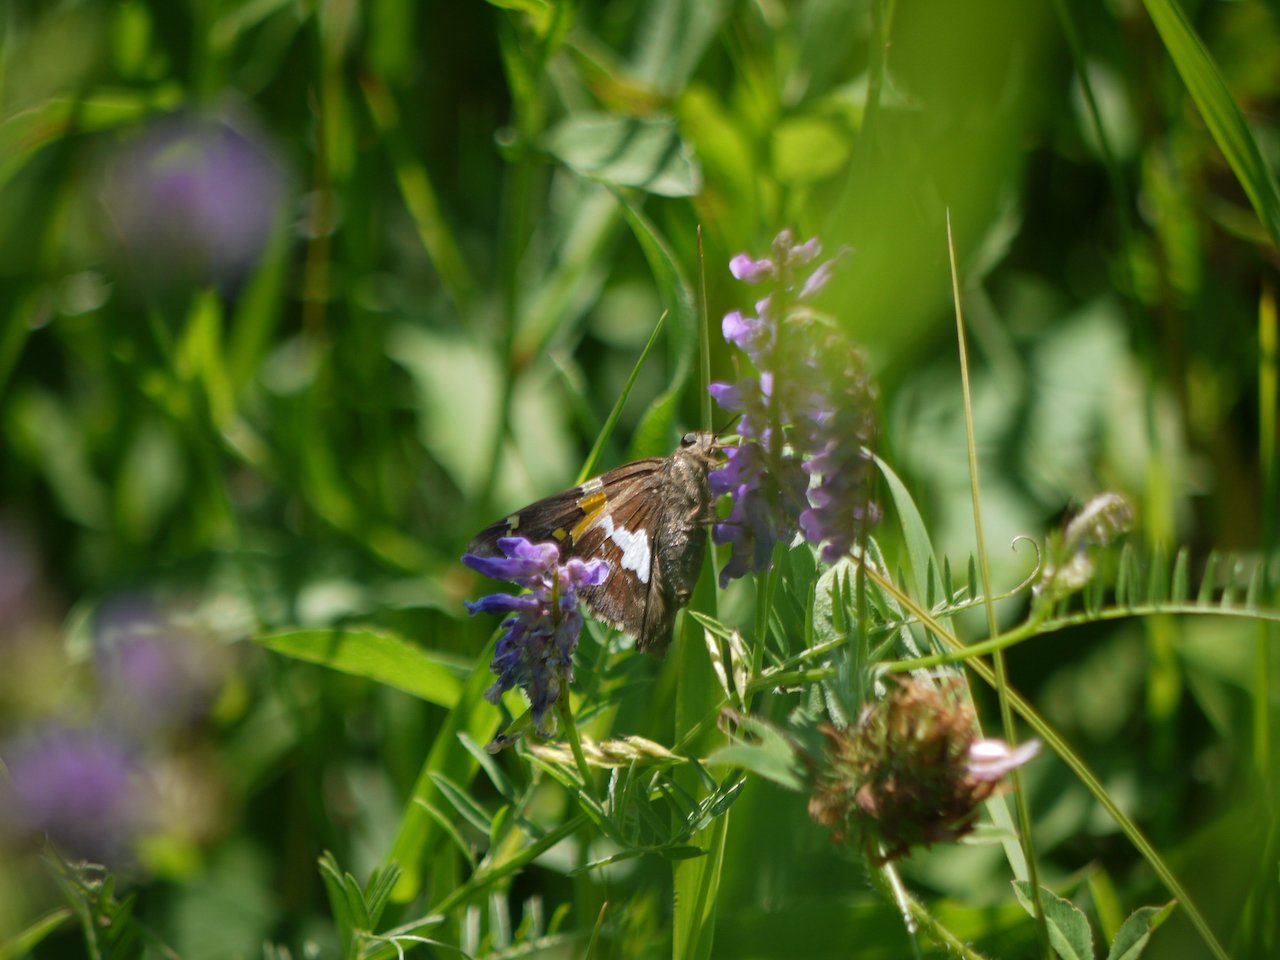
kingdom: Animalia
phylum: Arthropoda
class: Insecta
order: Lepidoptera
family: Hesperiidae
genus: Epargyreus
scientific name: Epargyreus clarus
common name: Silver-spotted Skipper
